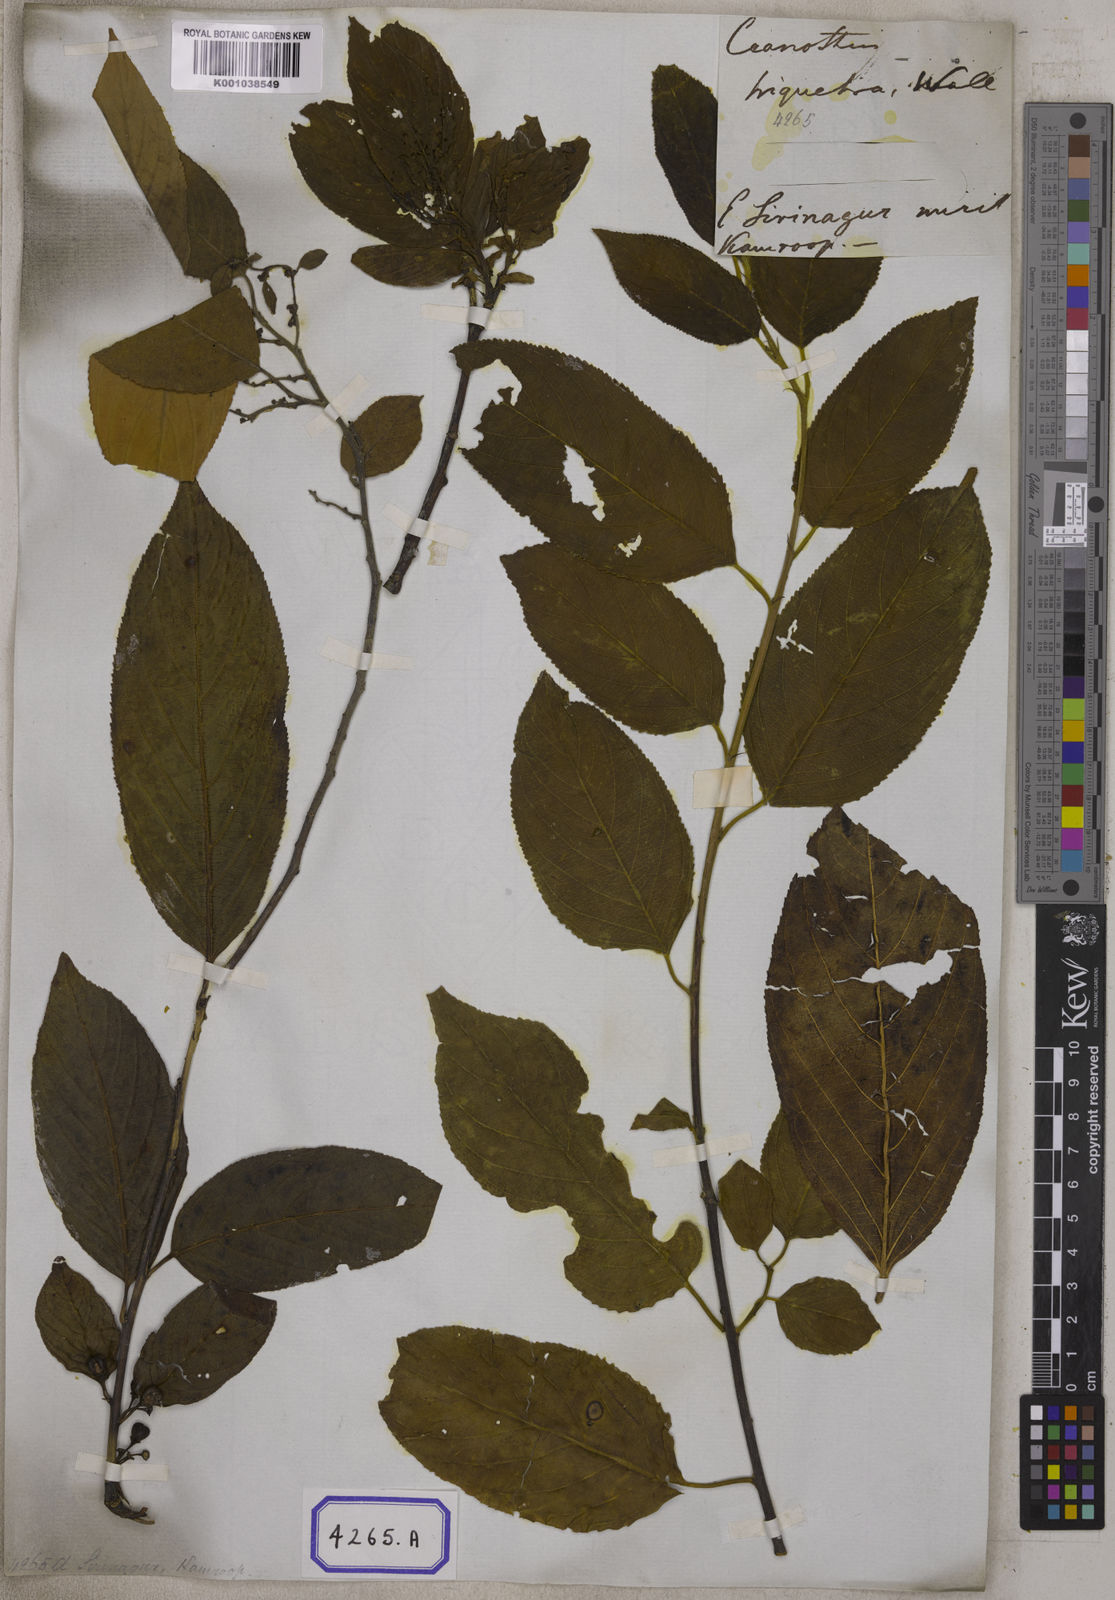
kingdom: Plantae
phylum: Tracheophyta
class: Magnoliopsida
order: Rosales
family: Rhamnaceae
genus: Rhamnus
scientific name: Rhamnus triquetra
